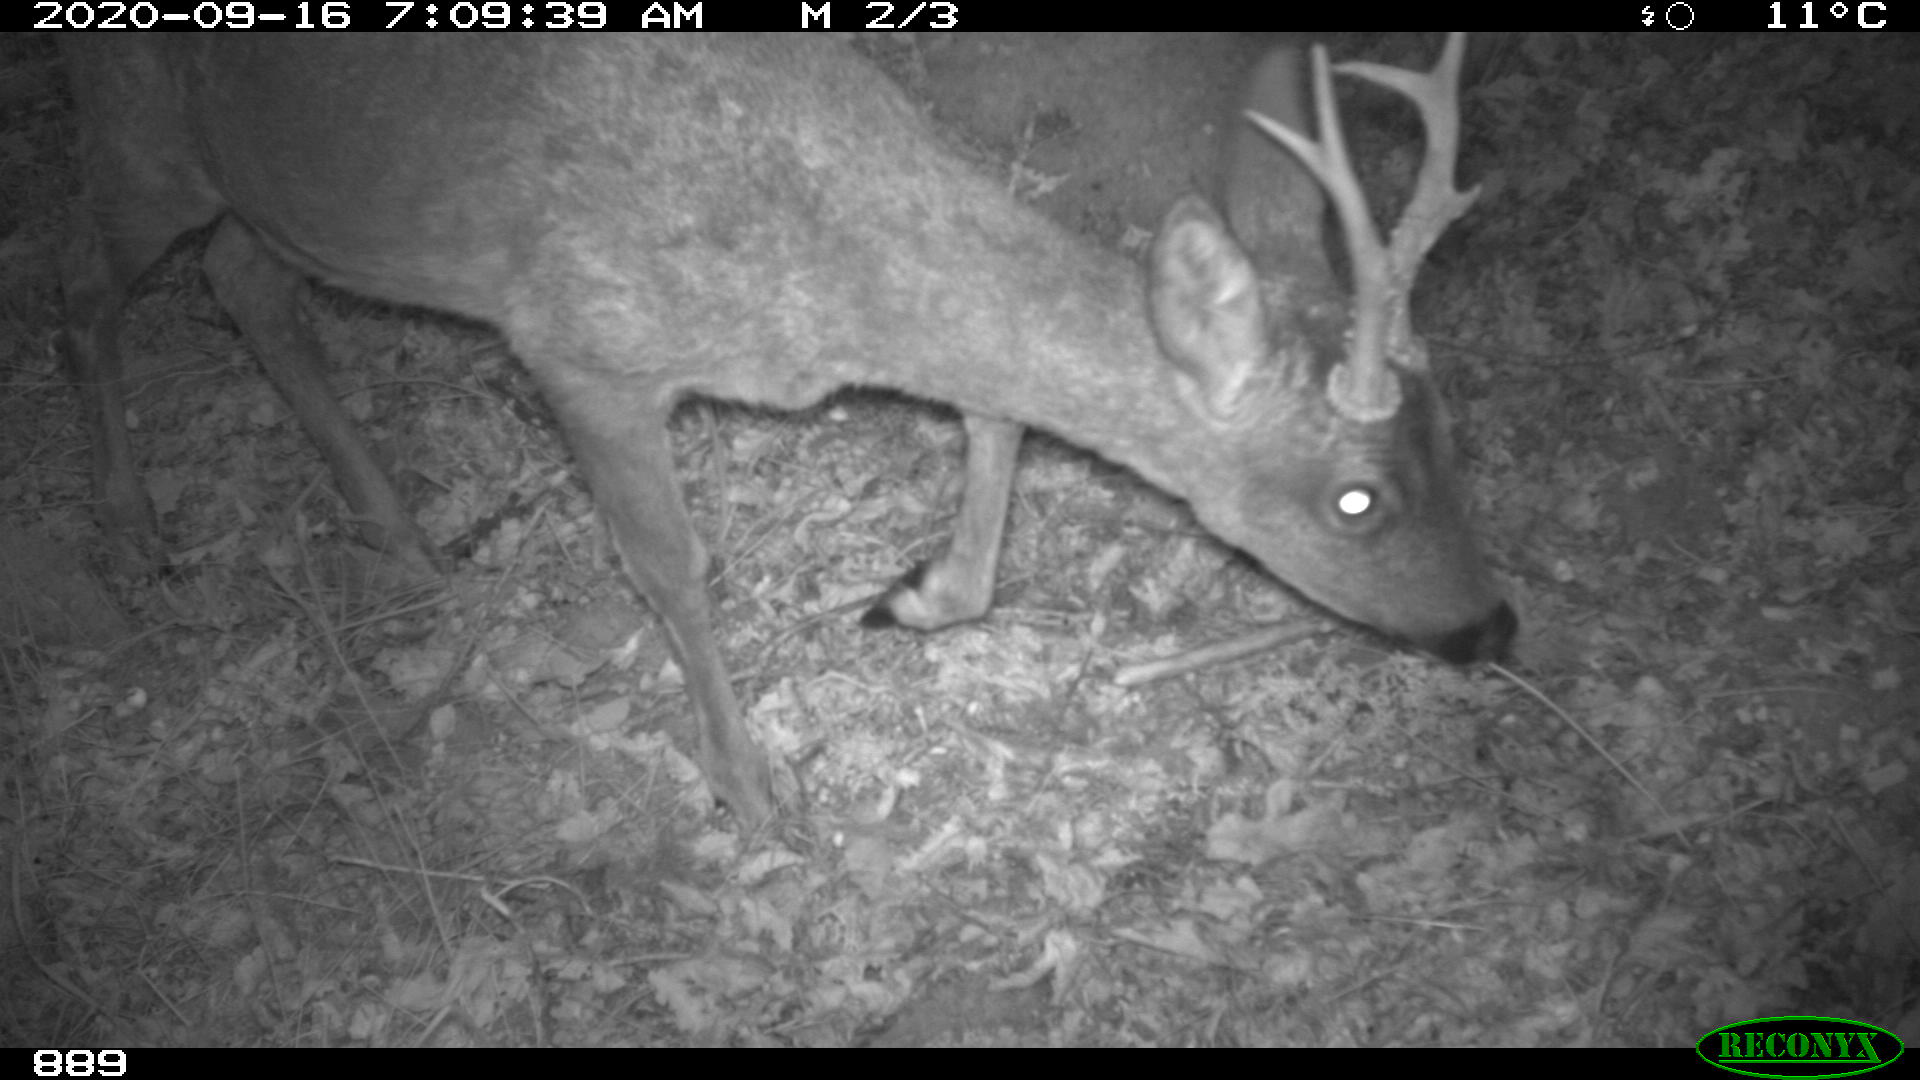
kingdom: Animalia
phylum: Chordata
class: Mammalia
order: Artiodactyla
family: Cervidae
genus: Capreolus
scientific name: Capreolus capreolus
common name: Western roe deer
